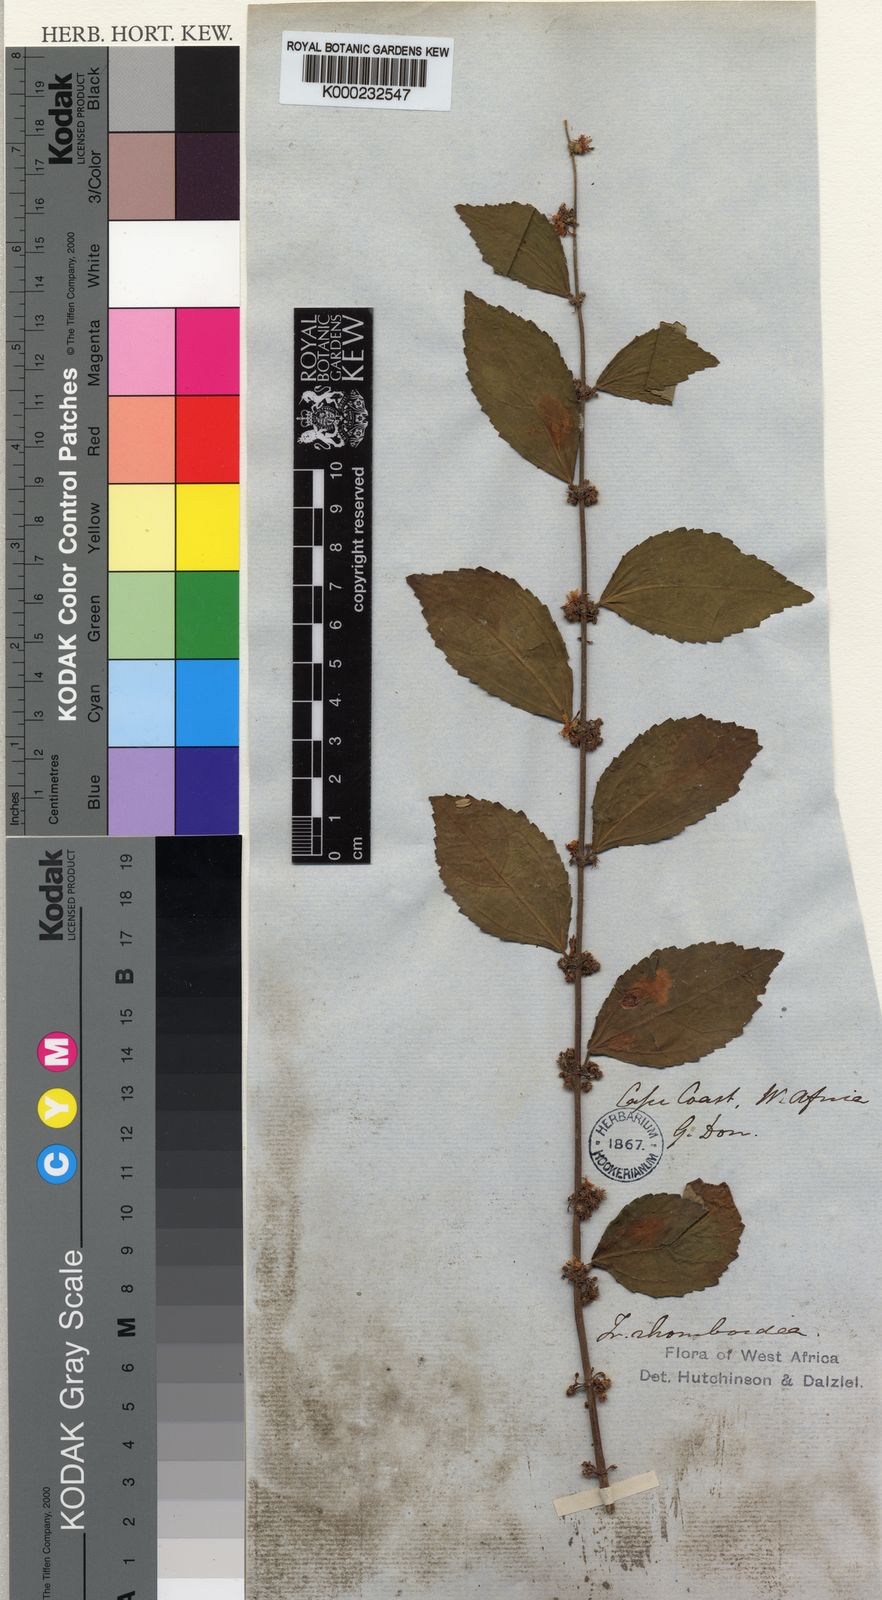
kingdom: Plantae
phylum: Tracheophyta
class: Magnoliopsida
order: Malvales
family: Malvaceae
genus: Triumfetta
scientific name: Triumfetta rhomboidea
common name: Diamond burbark
